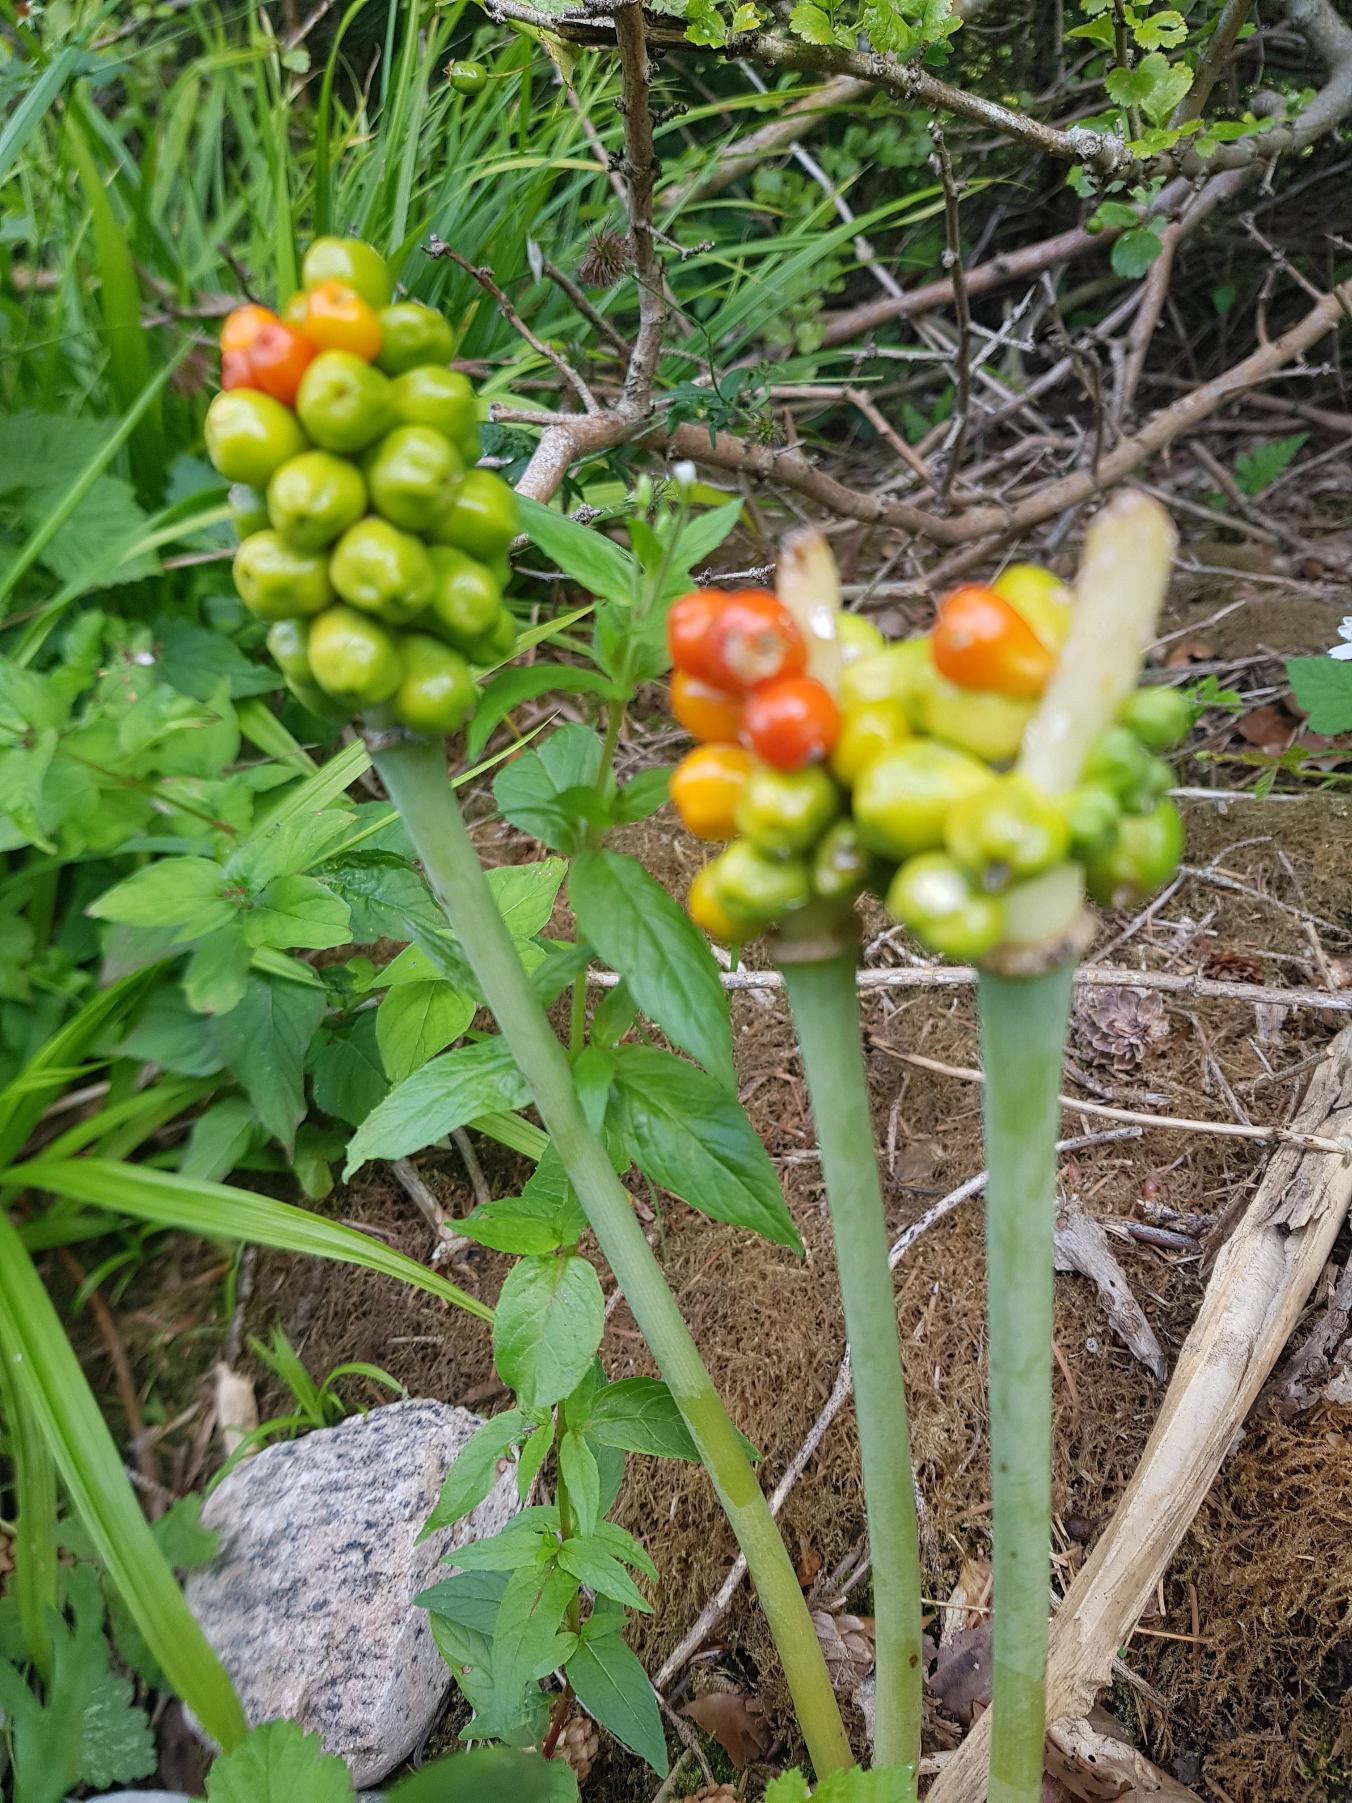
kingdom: Plantae
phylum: Tracheophyta
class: Liliopsida
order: Alismatales
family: Araceae
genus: Arum
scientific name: Arum
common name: Arumslægten
